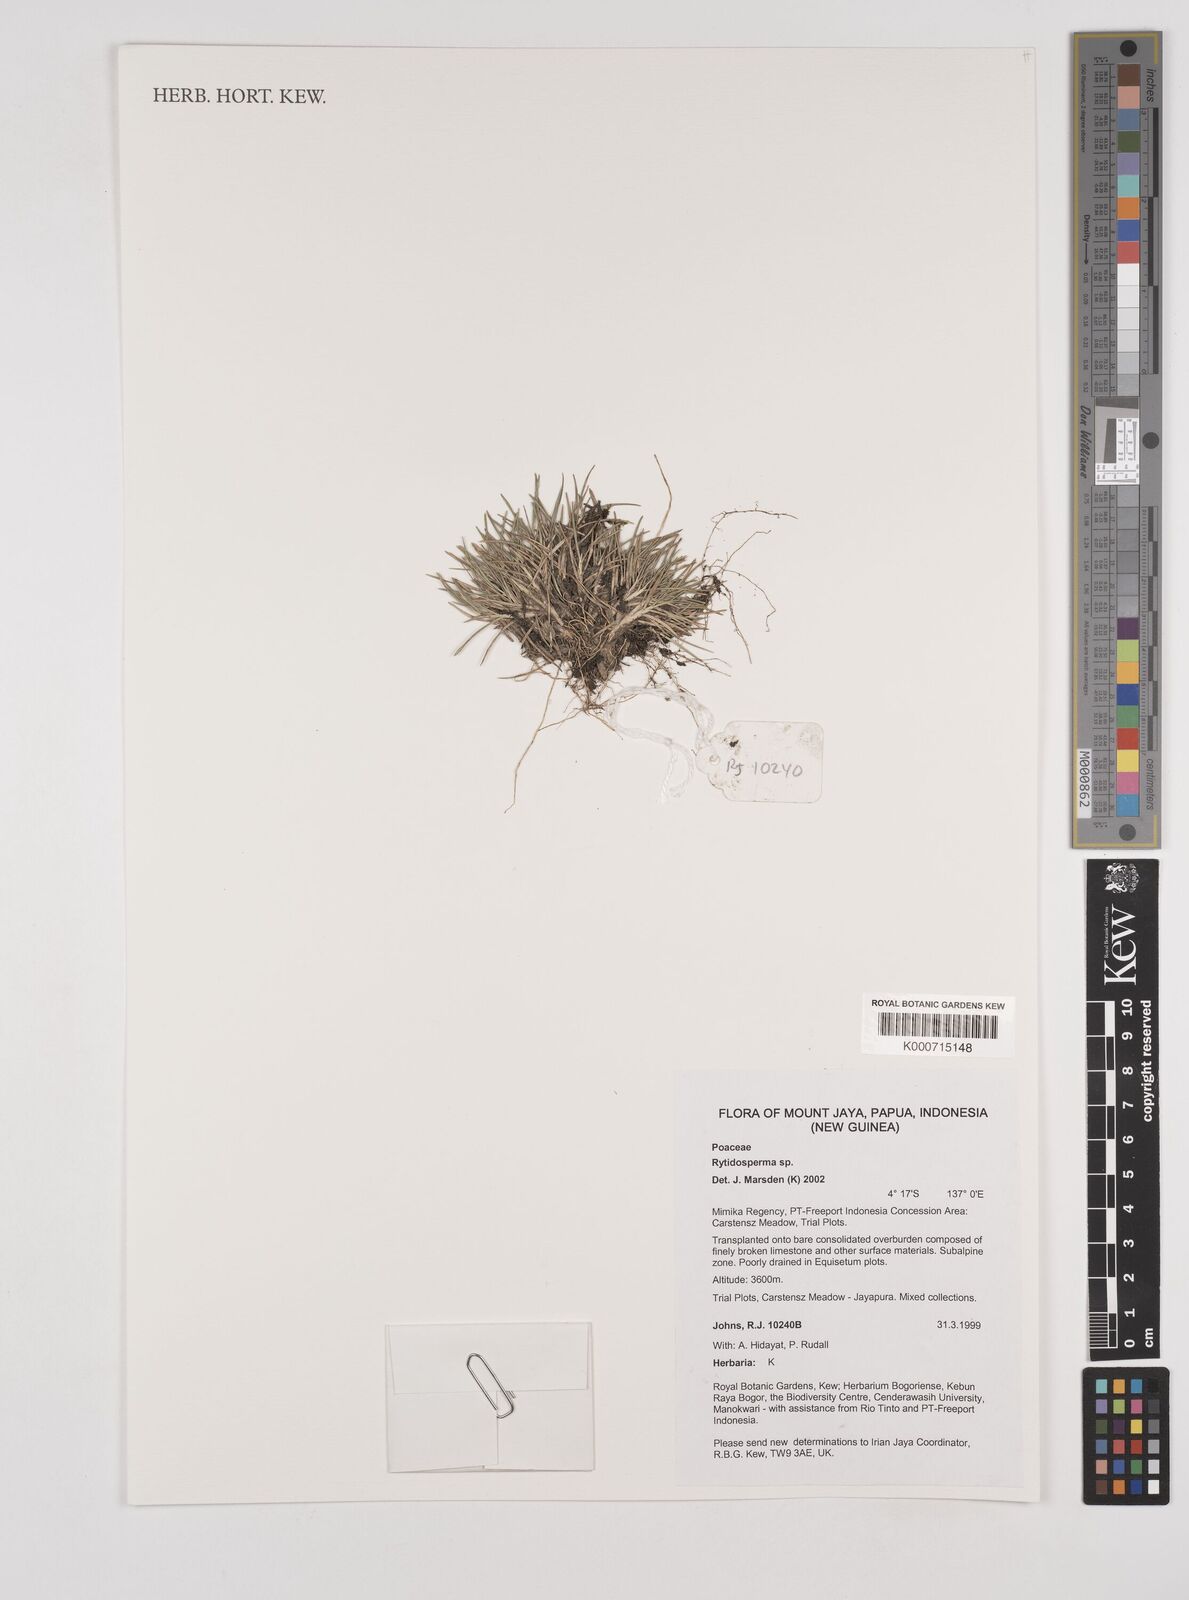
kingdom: Plantae
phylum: Tracheophyta
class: Liliopsida
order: Poales
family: Poaceae
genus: Rytidosperma
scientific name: Rytidosperma oreoboloides
